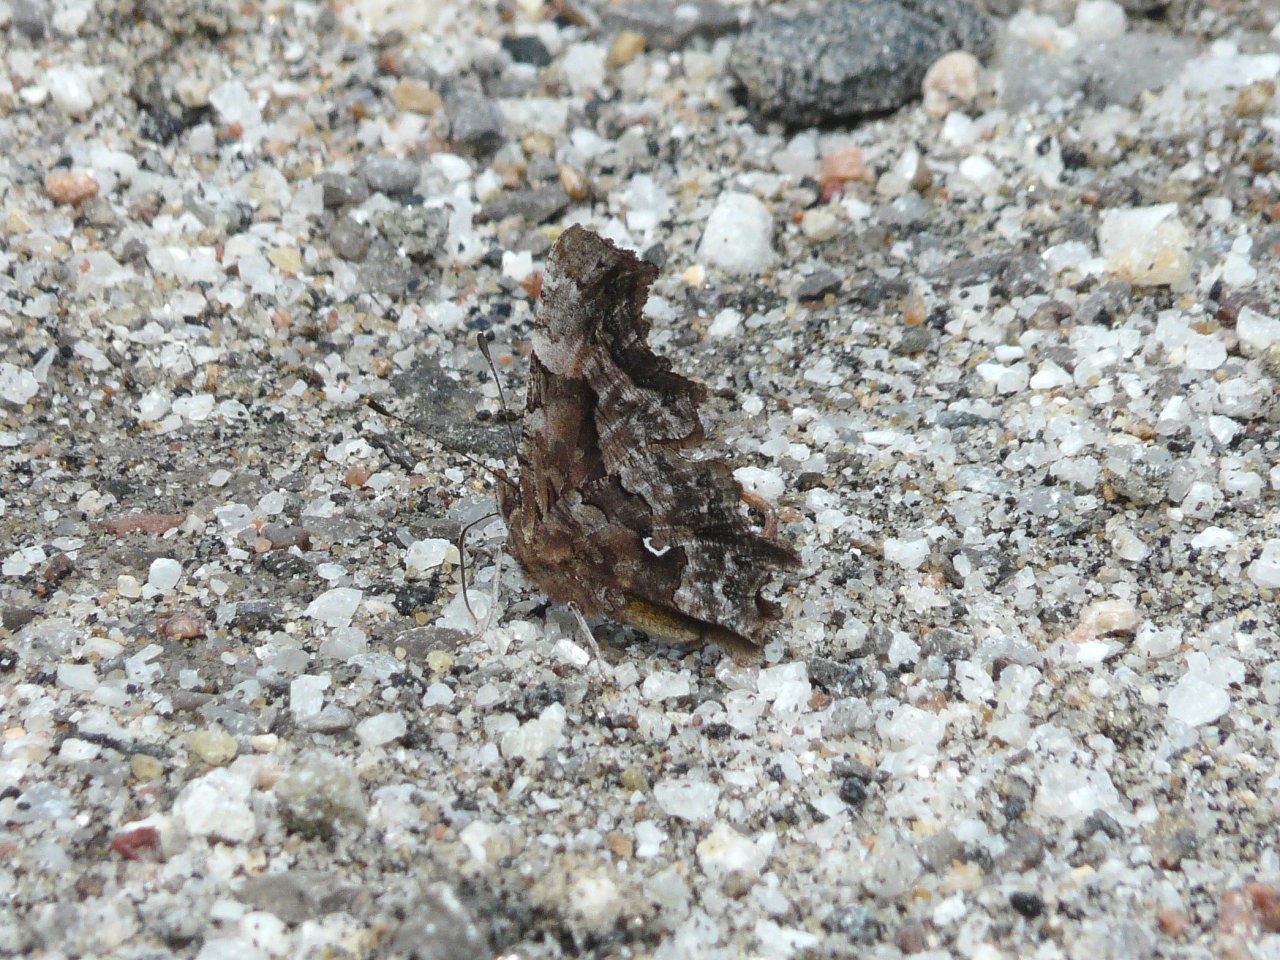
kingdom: Animalia
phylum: Arthropoda
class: Insecta
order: Lepidoptera
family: Nymphalidae
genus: Polygonia
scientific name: Polygonia faunus
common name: Green Comma
